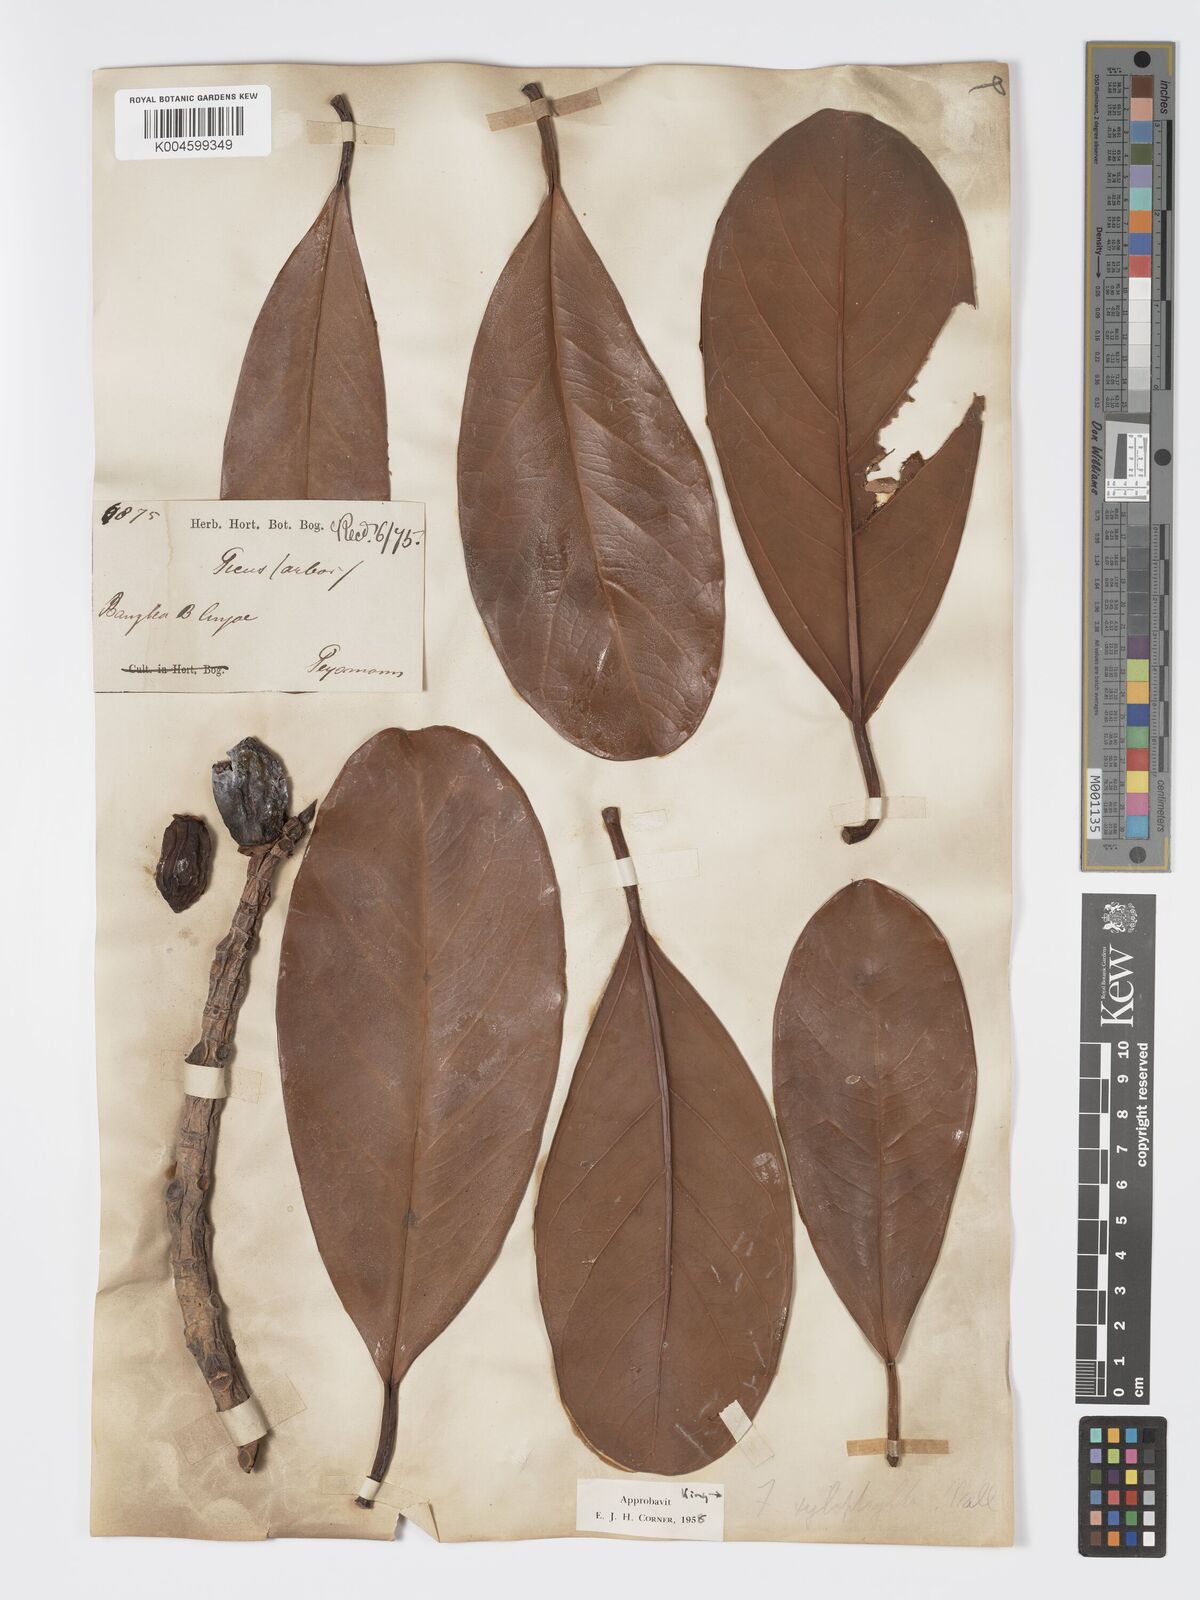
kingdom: Plantae
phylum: Tracheophyta
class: Magnoliopsida
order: Rosales
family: Moraceae
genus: Ficus
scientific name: Ficus xylophylla
